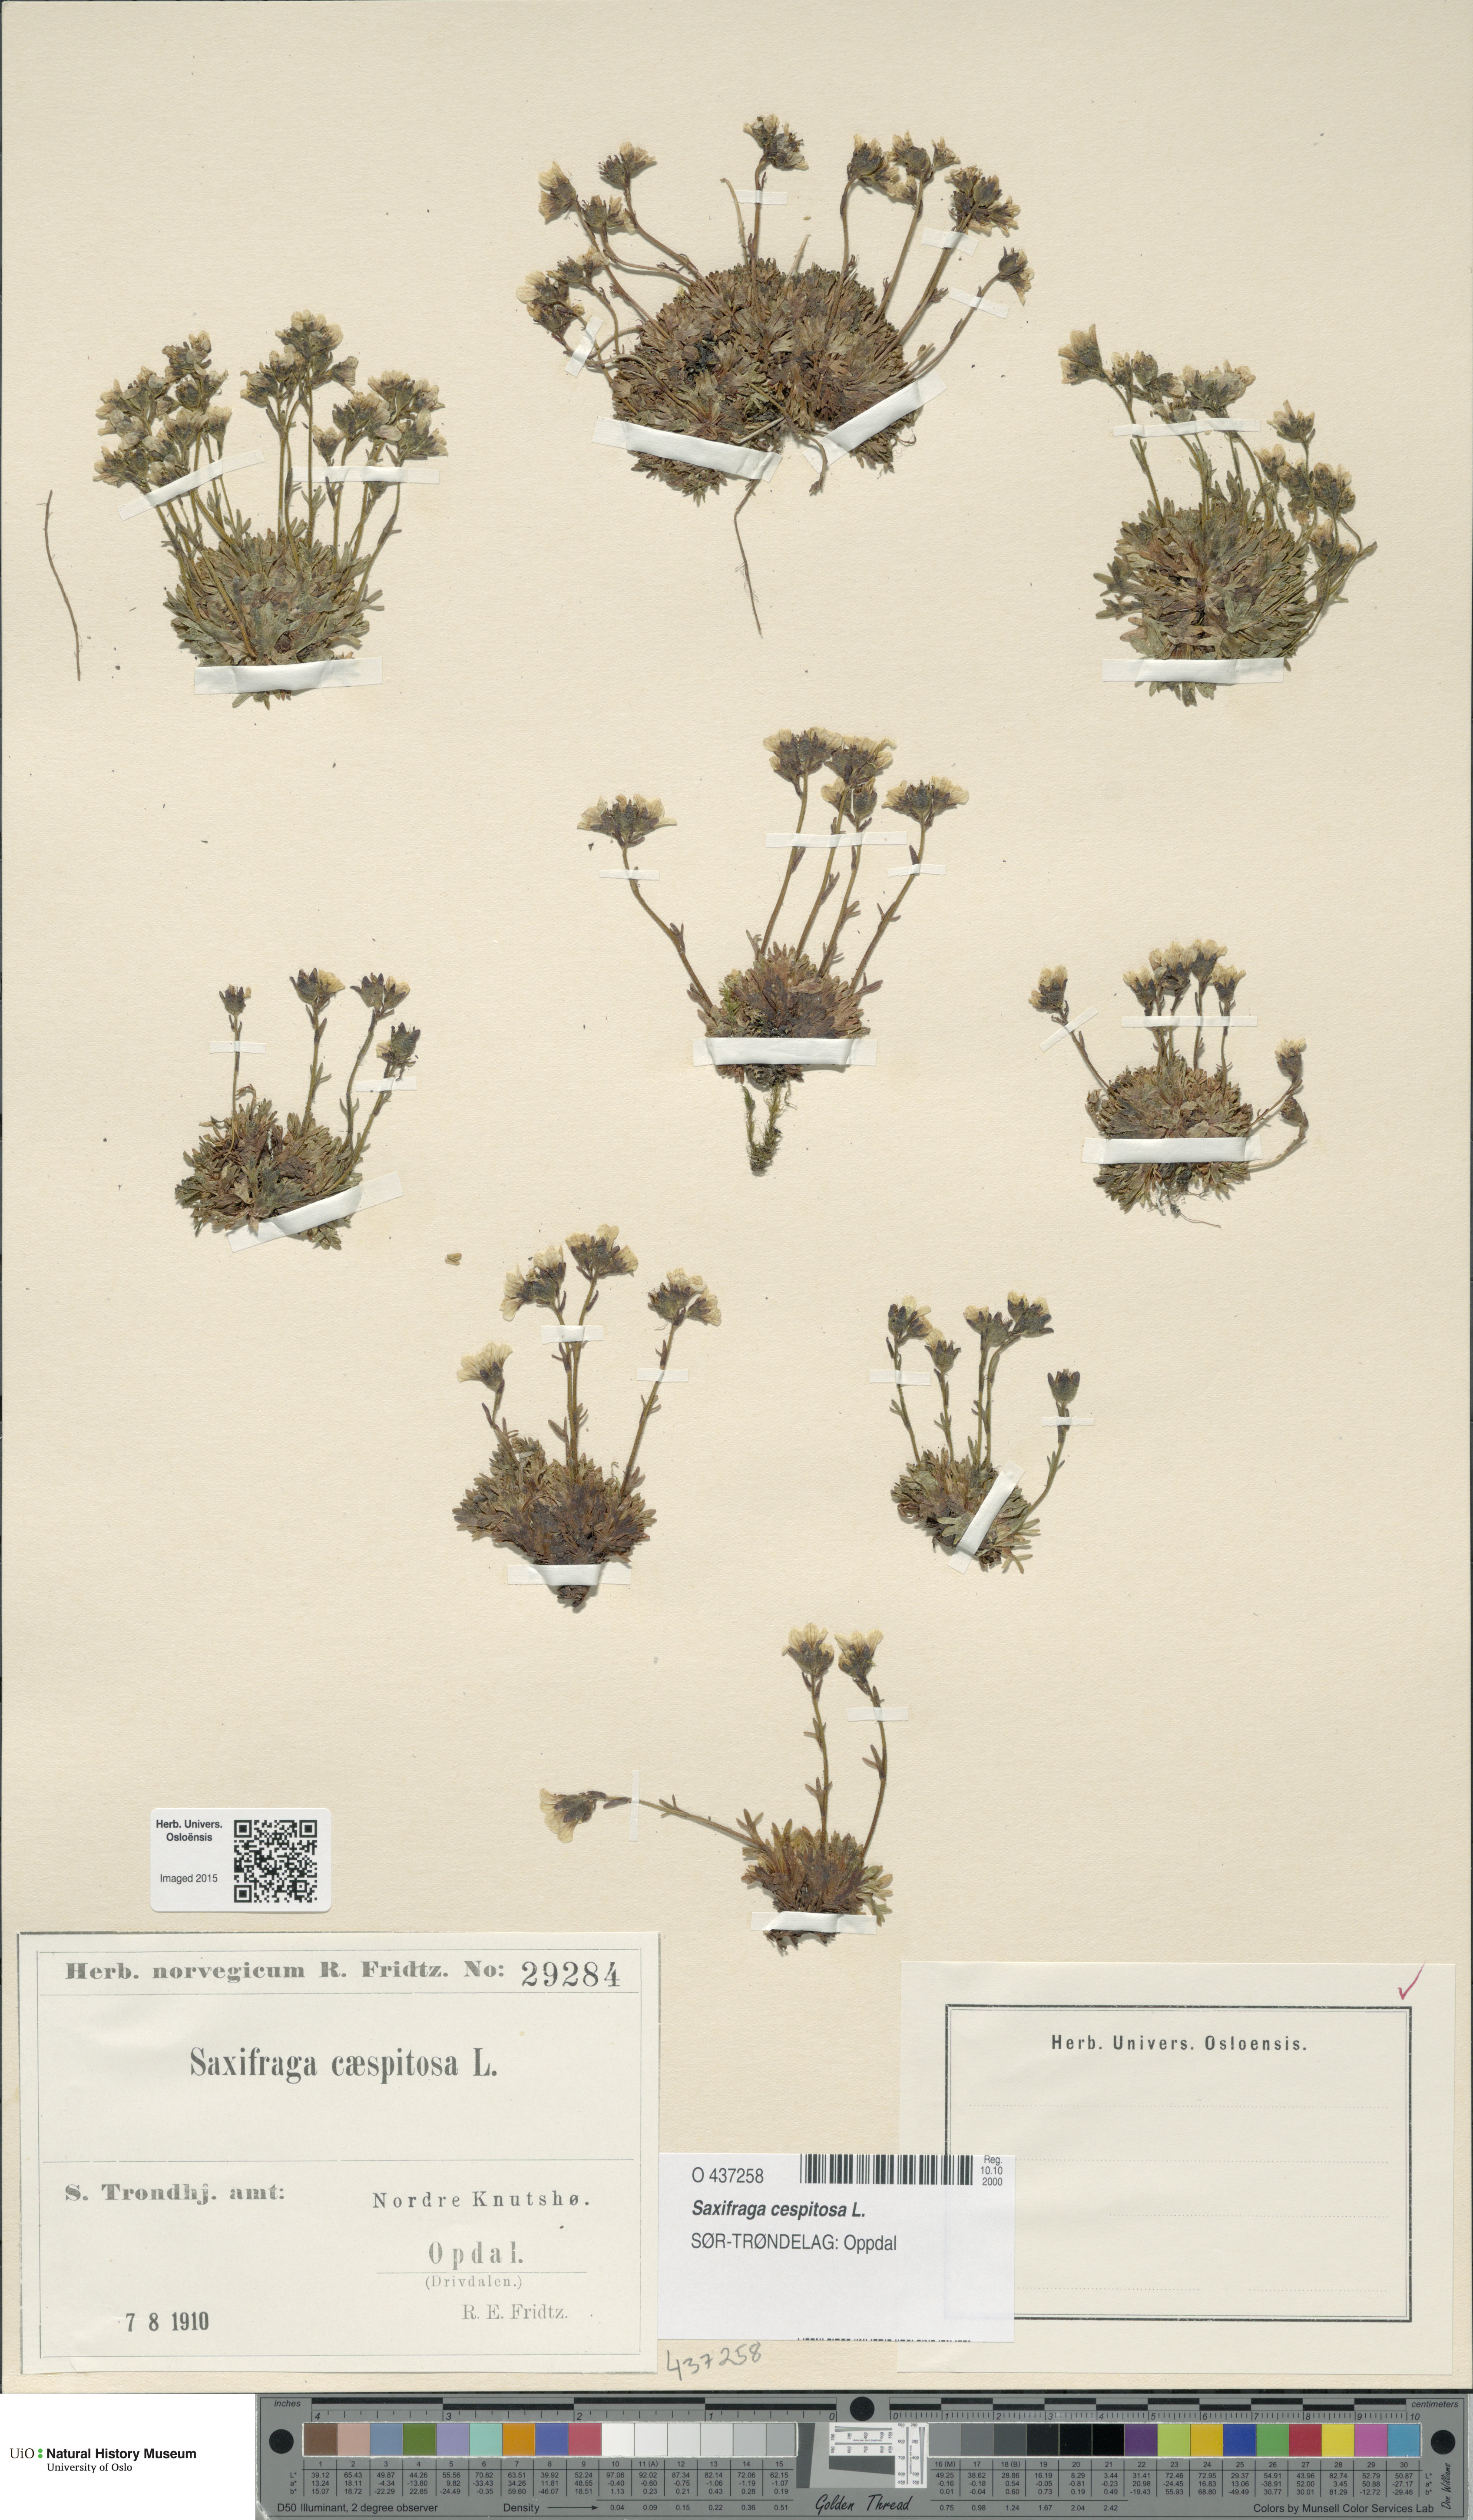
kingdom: Plantae
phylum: Tracheophyta
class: Magnoliopsida
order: Saxifragales
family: Saxifragaceae
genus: Saxifraga
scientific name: Saxifraga cespitosa
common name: Tufted saxifrage
